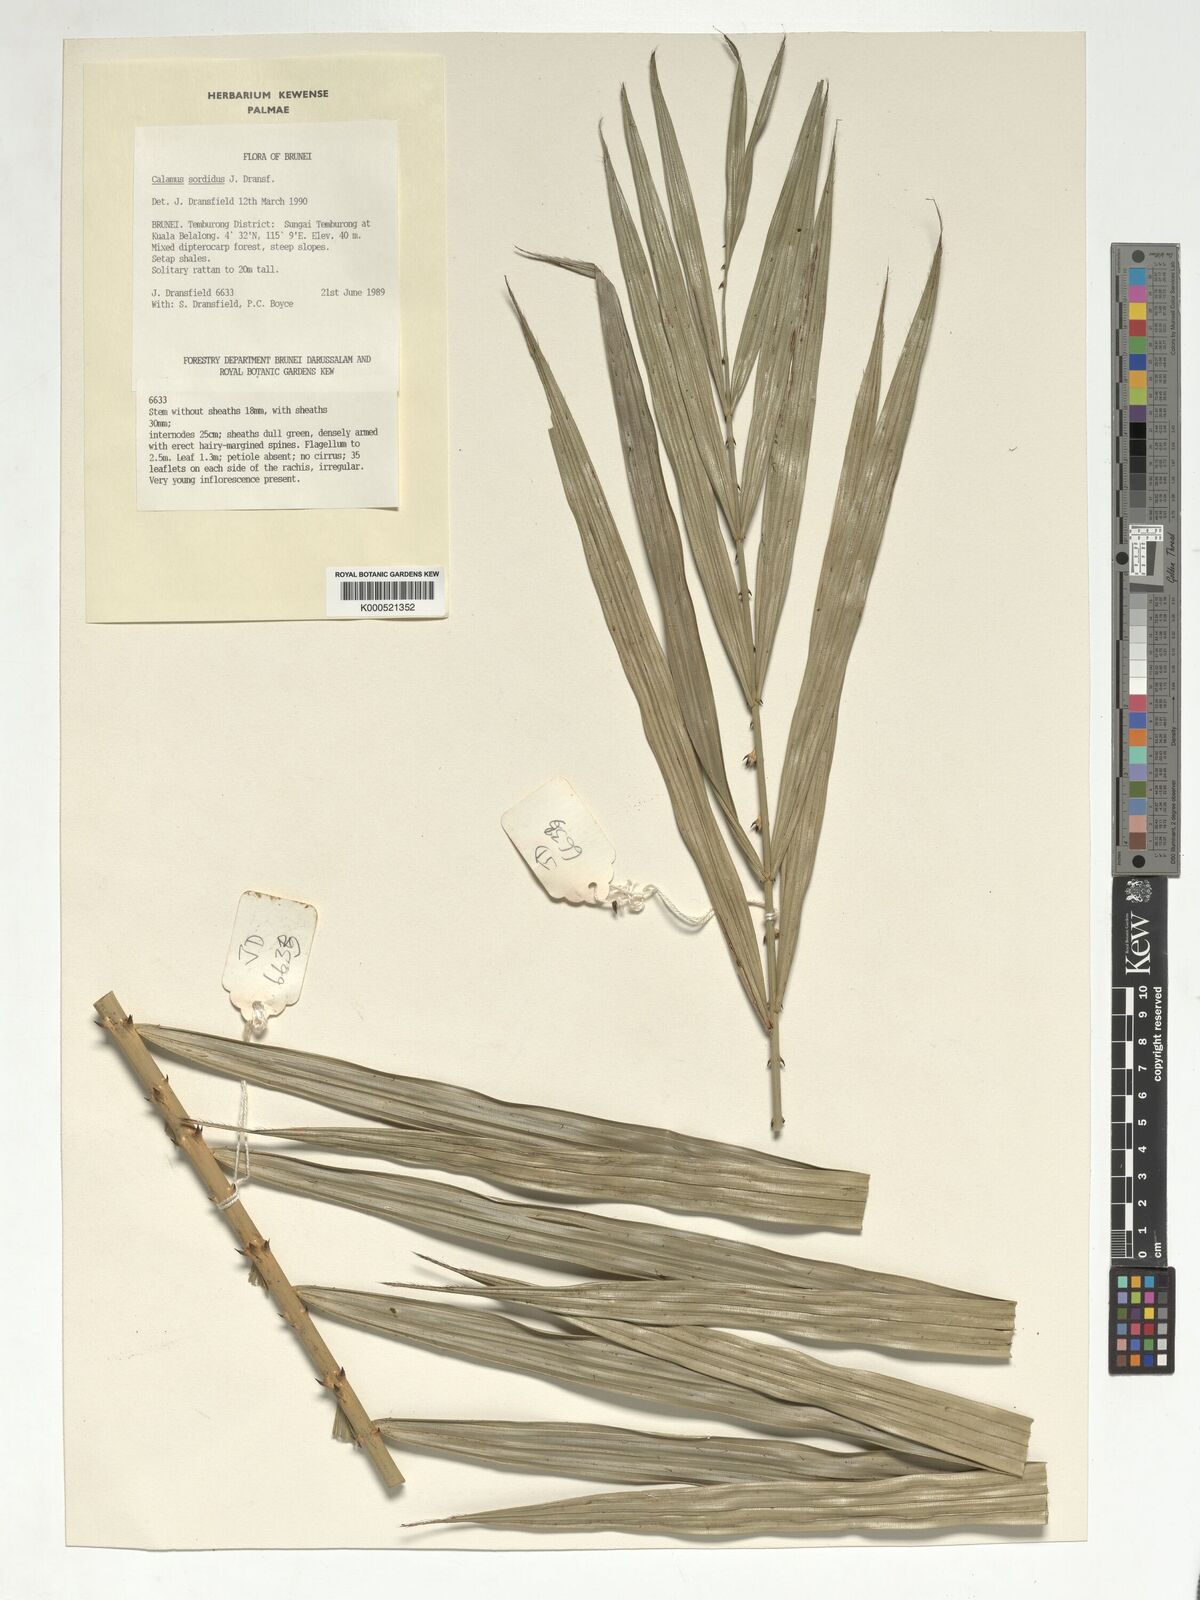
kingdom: Plantae
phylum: Tracheophyta
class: Liliopsida
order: Arecales
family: Arecaceae
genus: Calamus
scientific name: Calamus sordidus
